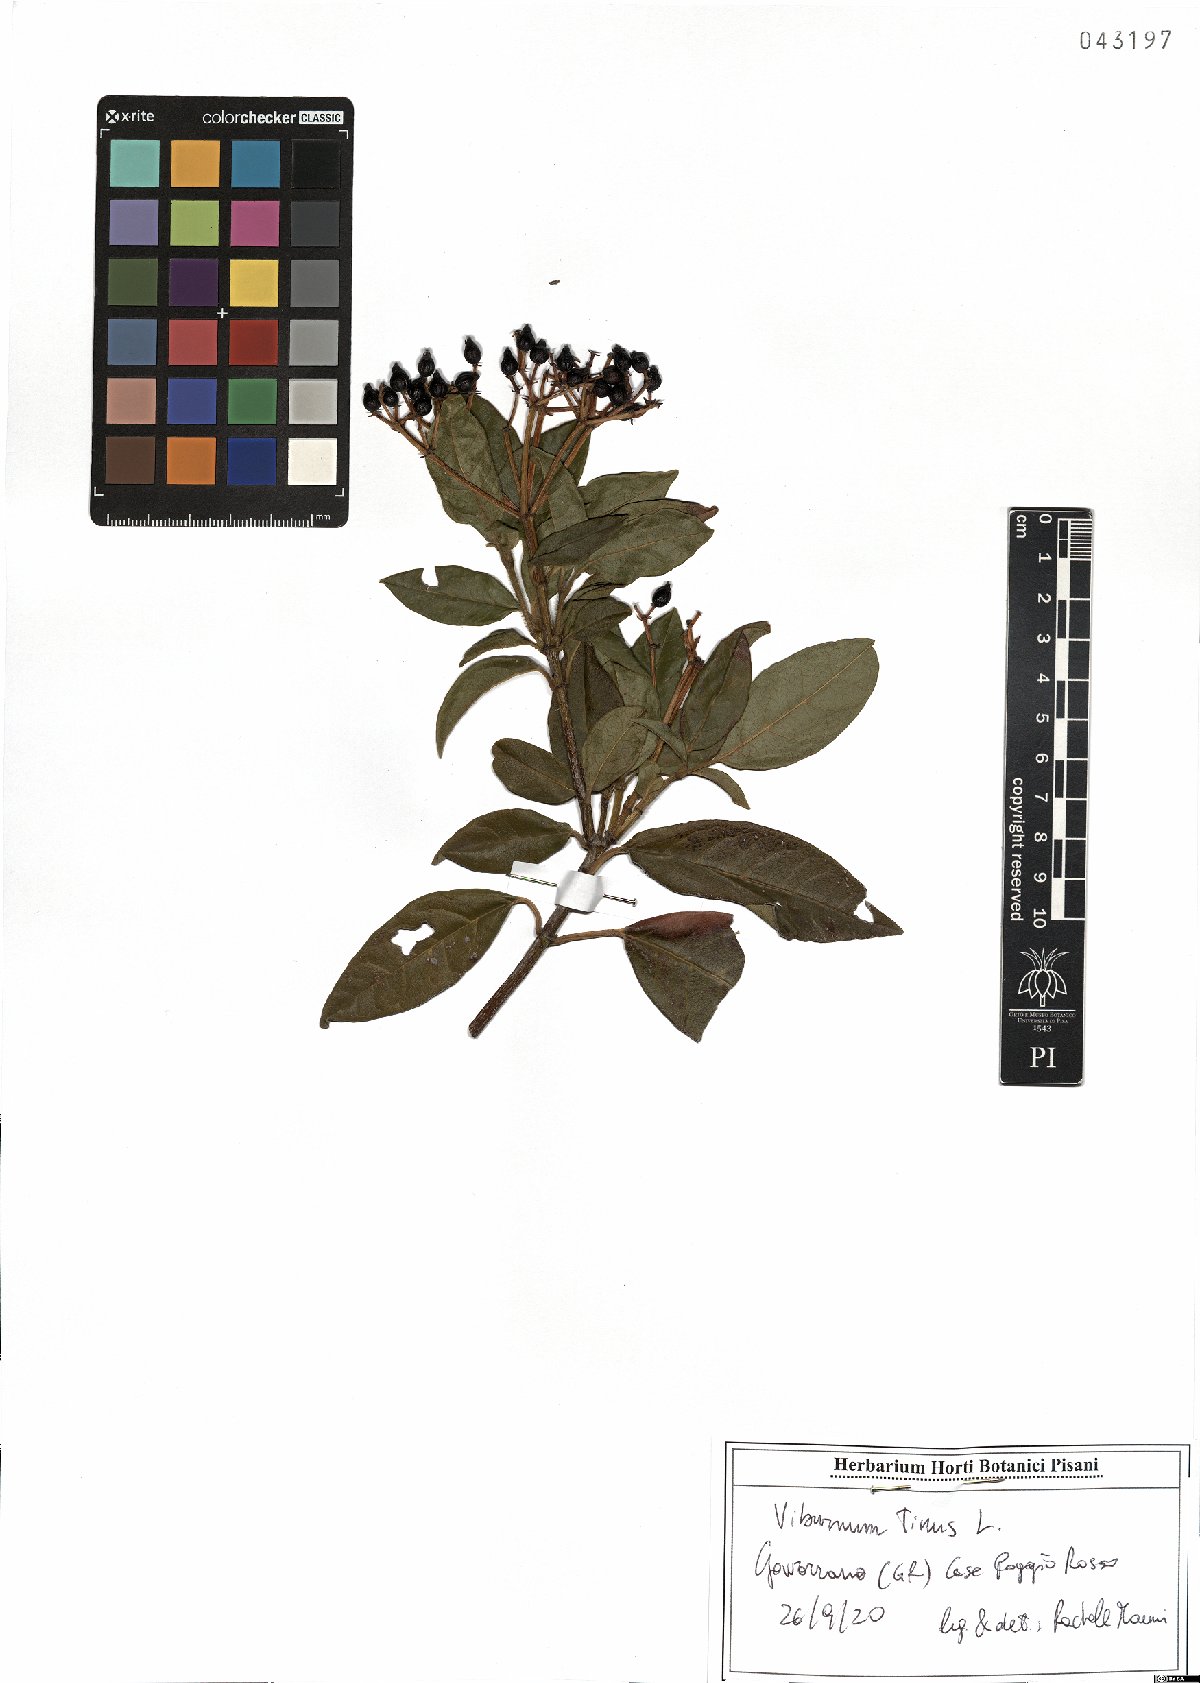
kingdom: Plantae
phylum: Tracheophyta
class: Magnoliopsida
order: Dipsacales
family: Viburnaceae
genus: Viburnum
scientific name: Viburnum tinus
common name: Laurustinus
